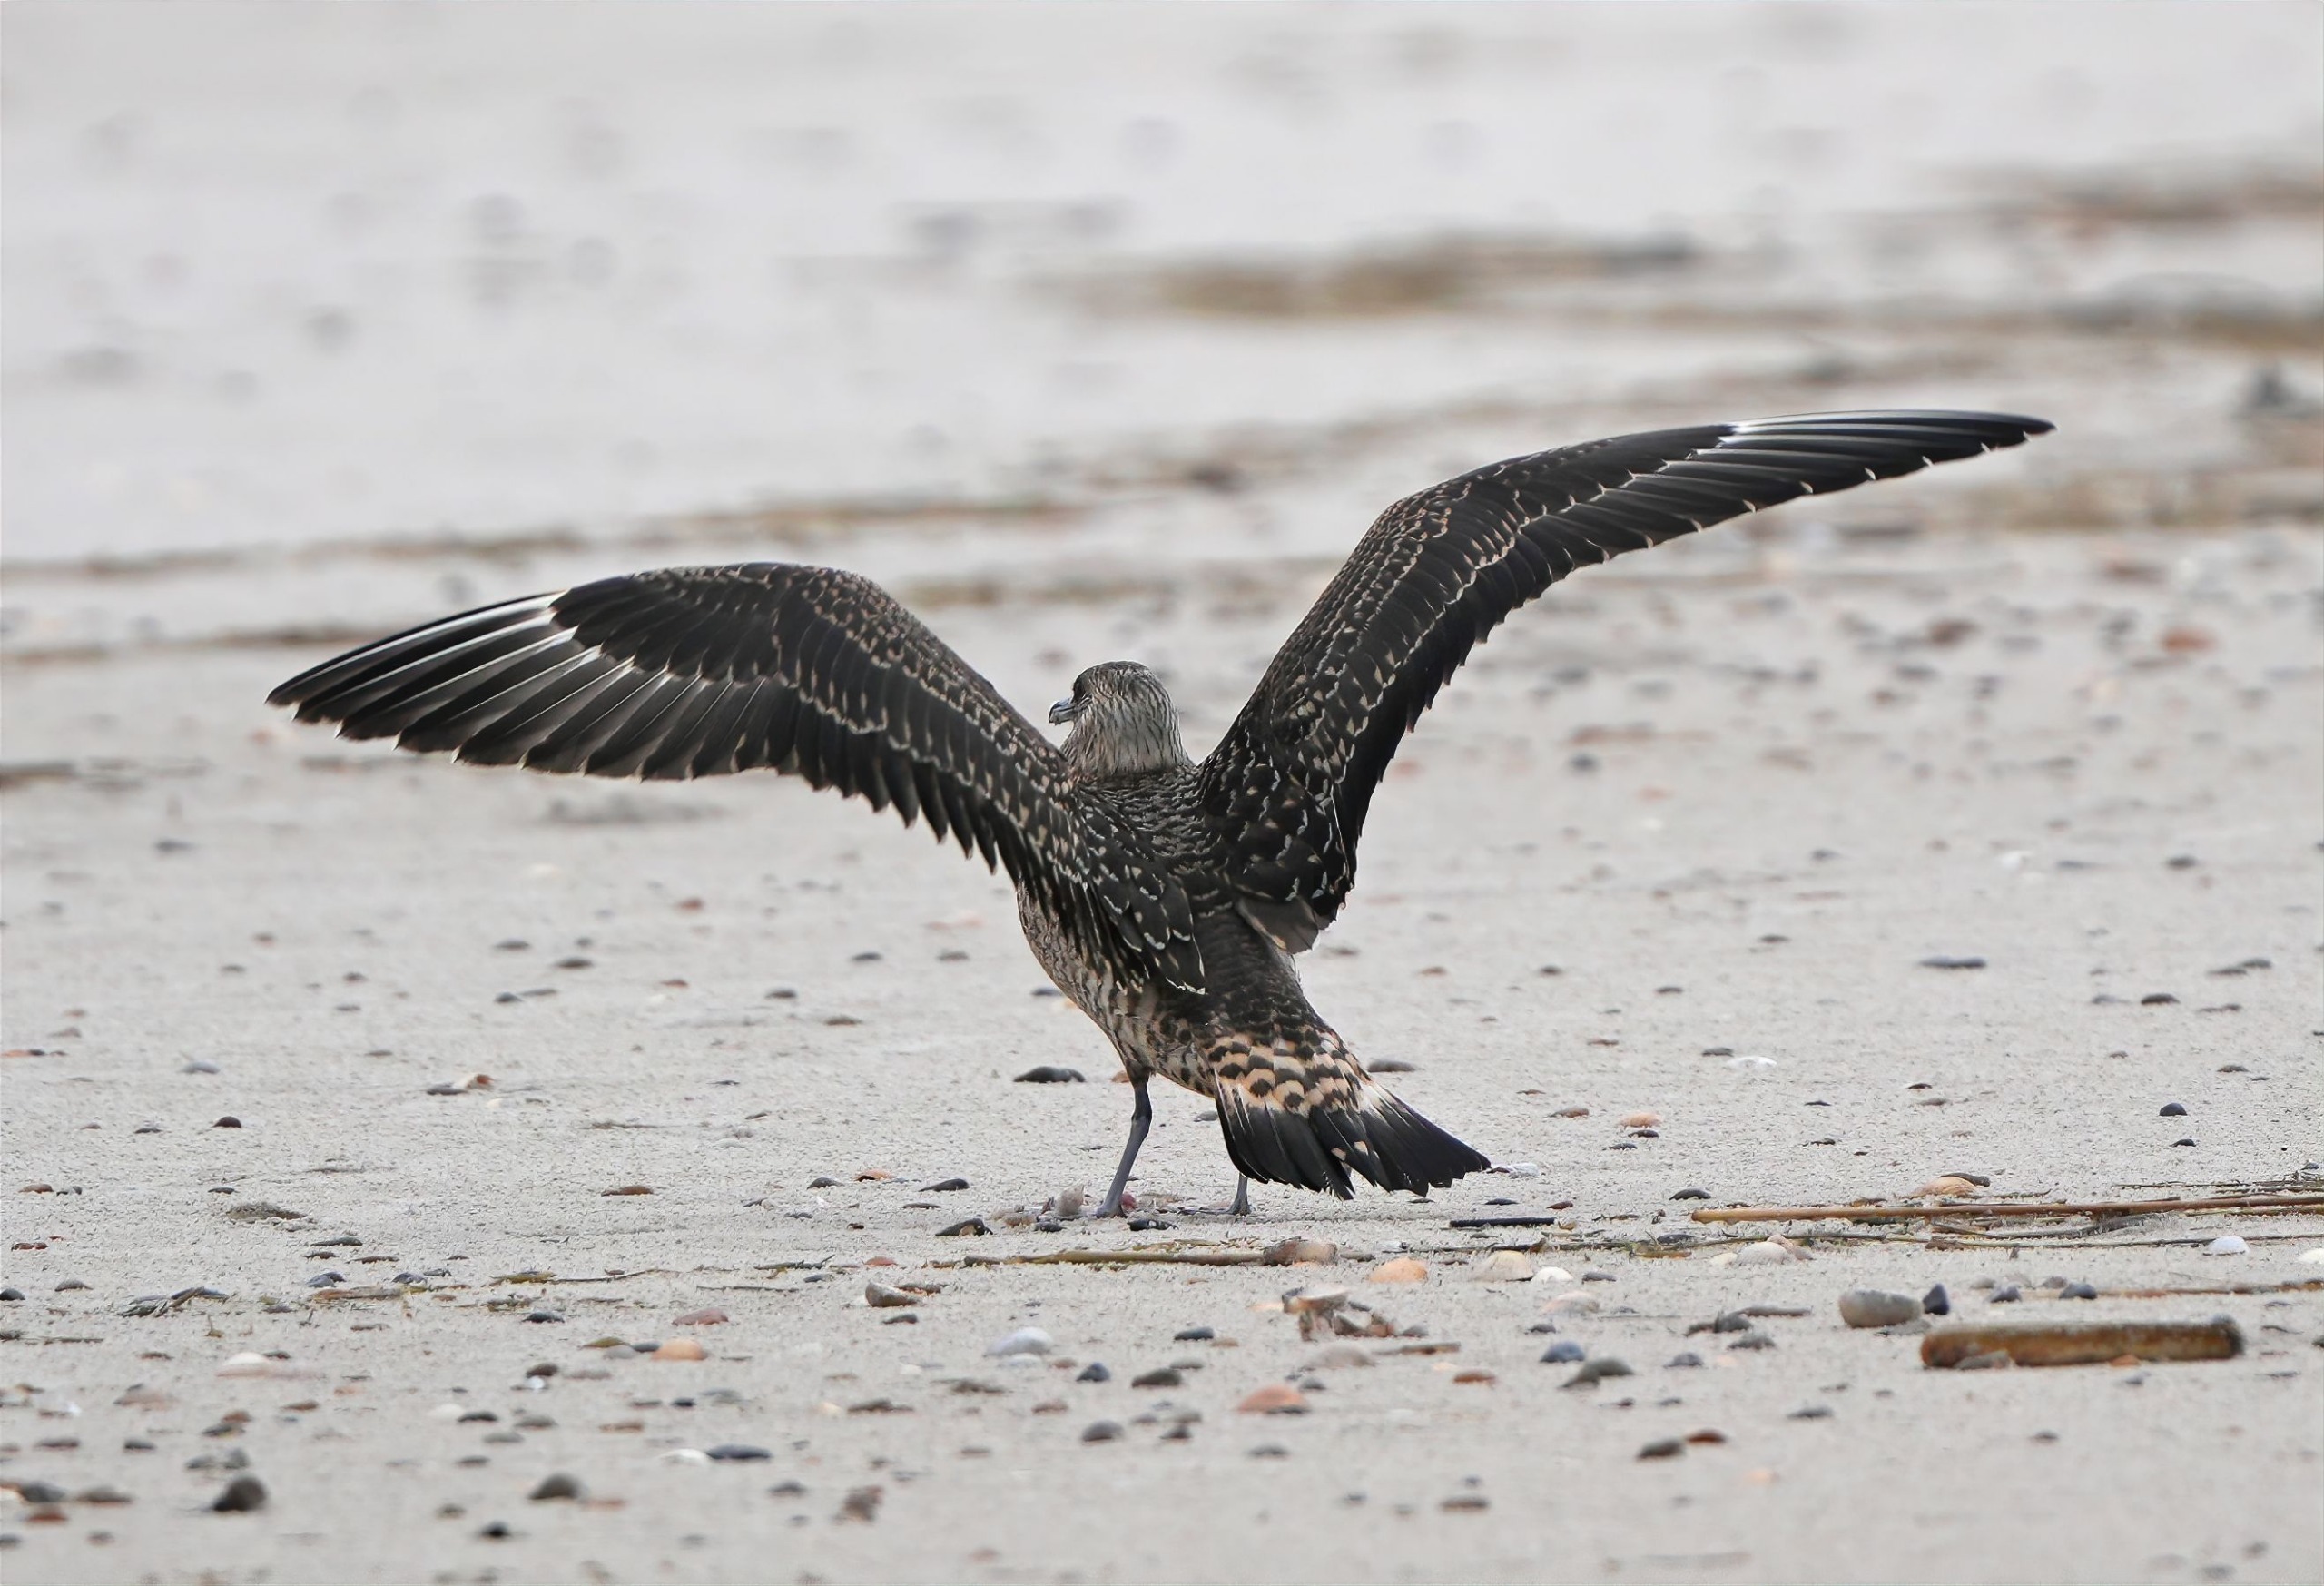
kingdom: Animalia
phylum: Chordata
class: Aves
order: Charadriiformes
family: Stercorariidae
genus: Stercorarius
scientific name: Stercorarius longicaudus
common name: Lille kjove
